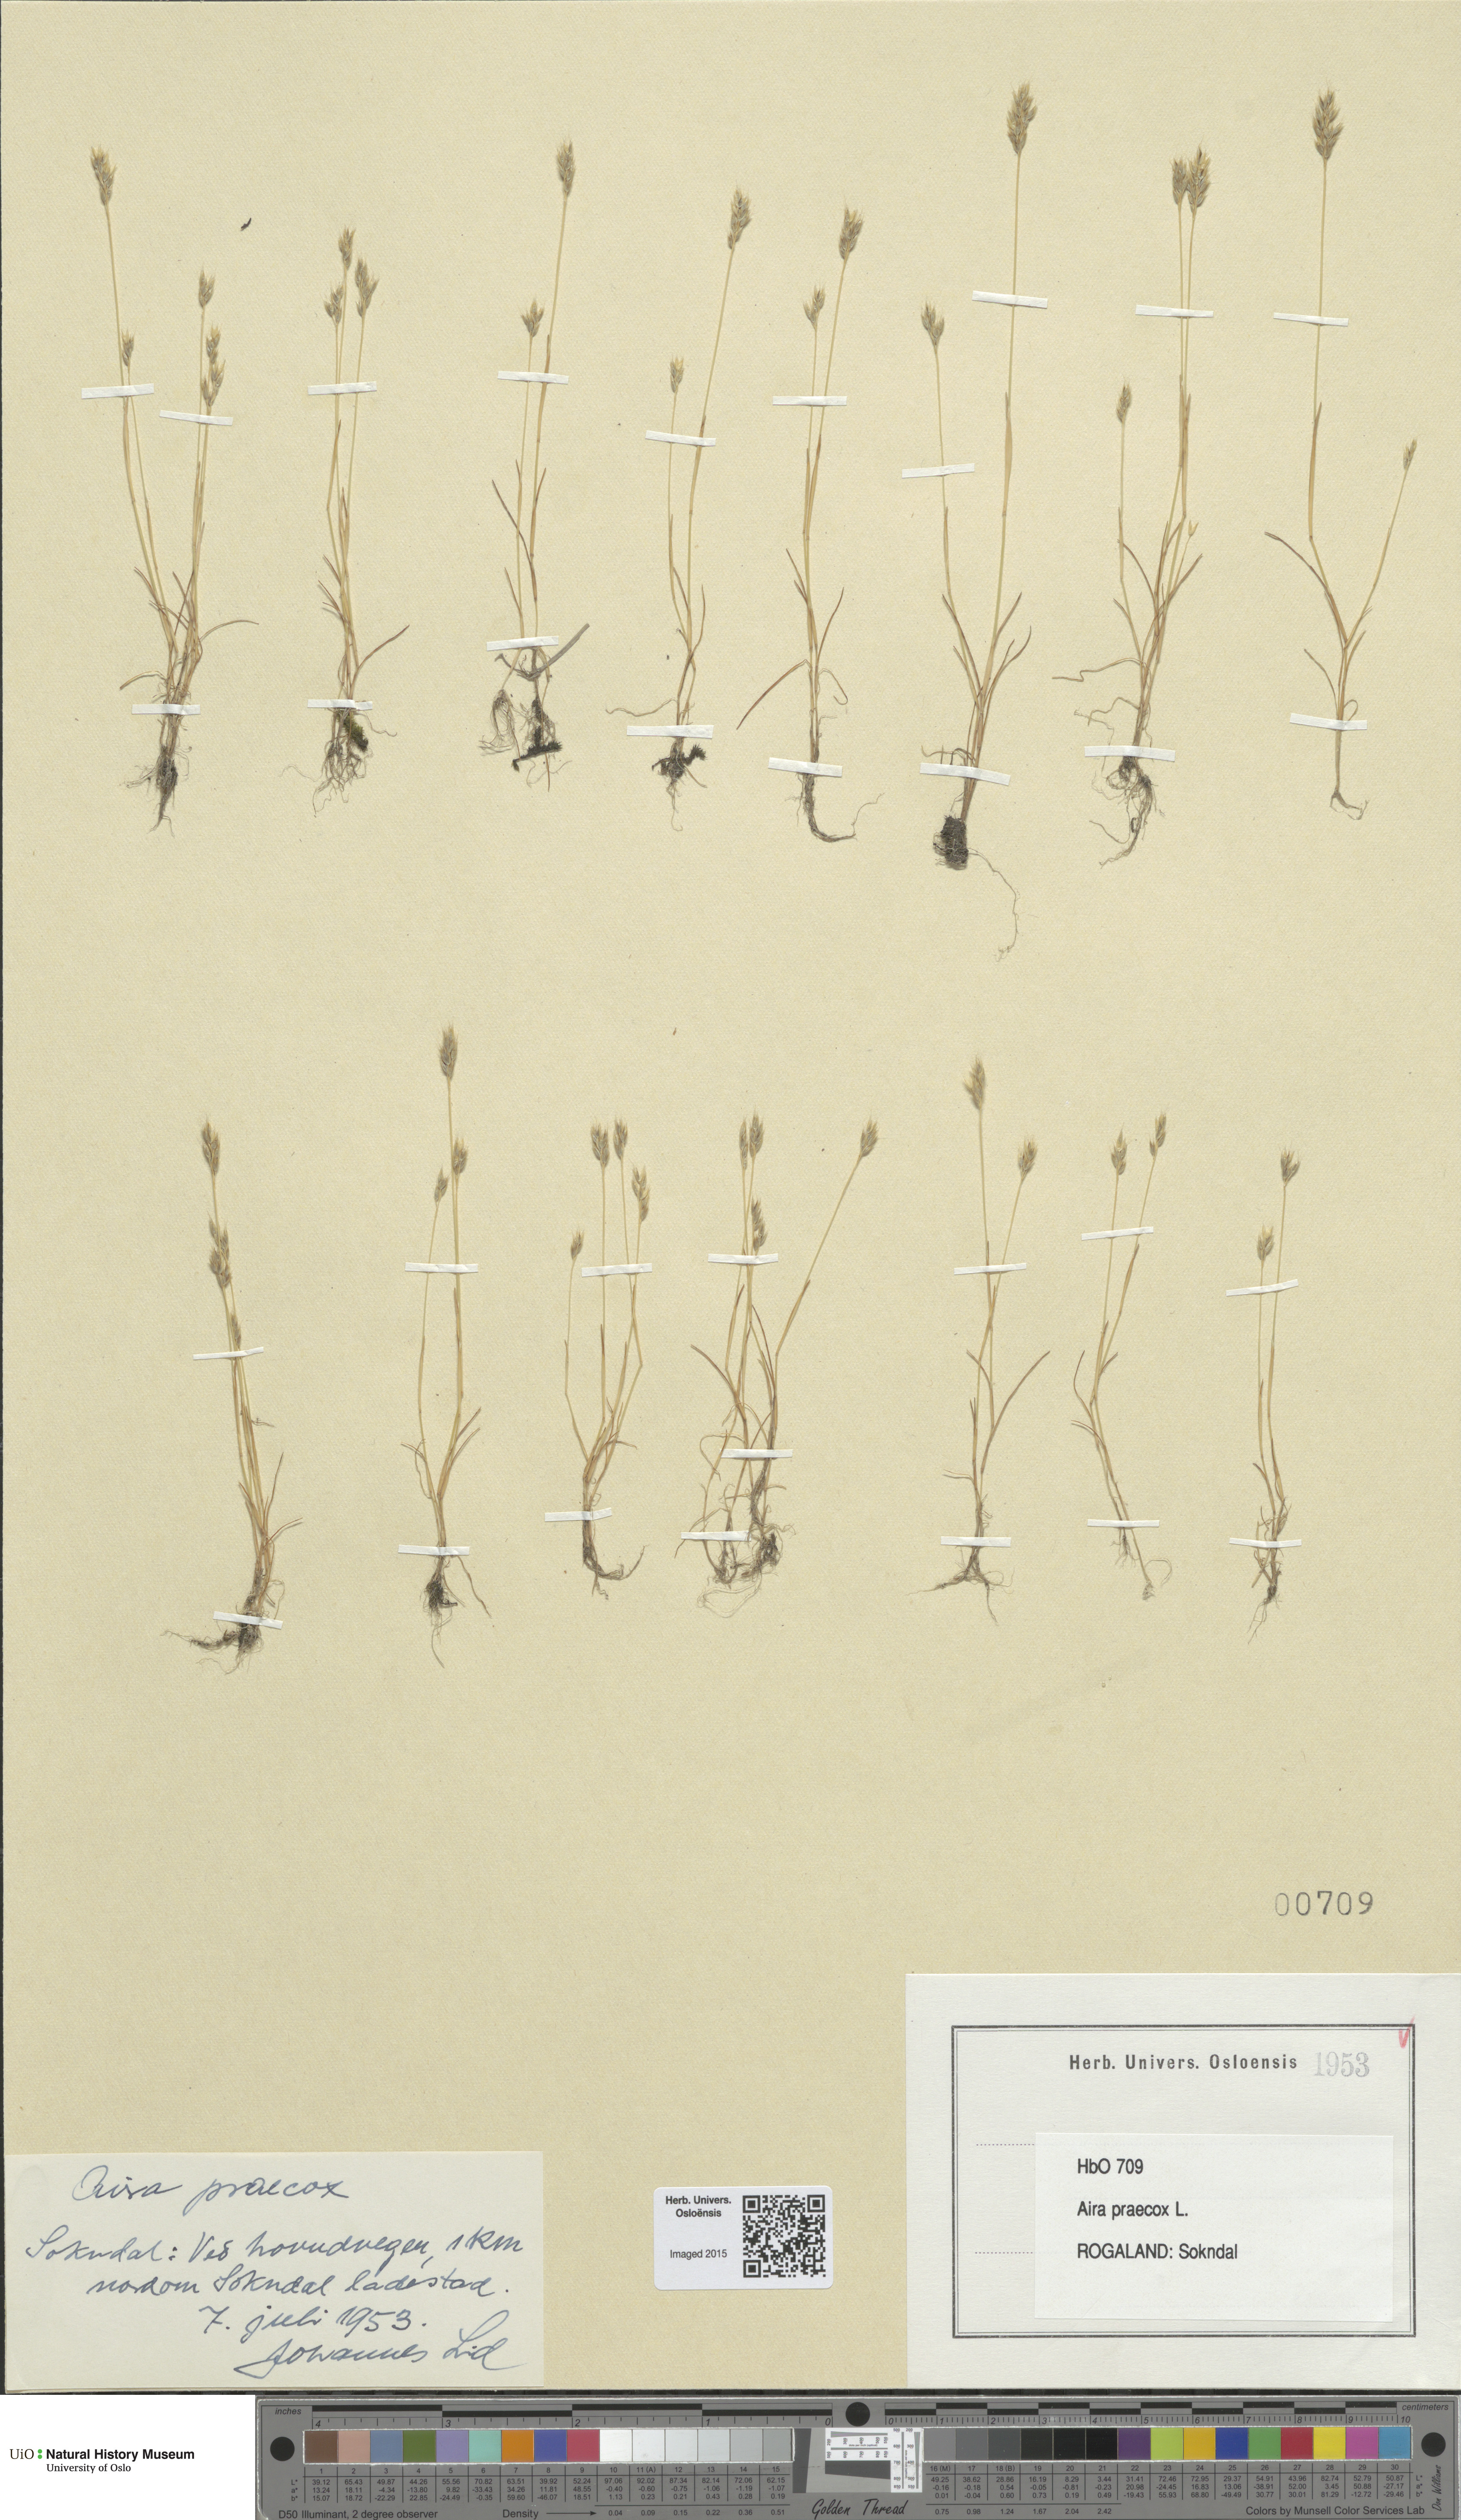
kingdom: Plantae
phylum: Tracheophyta
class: Liliopsida
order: Poales
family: Poaceae
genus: Aira
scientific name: Aira praecox
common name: Early hair-grass
